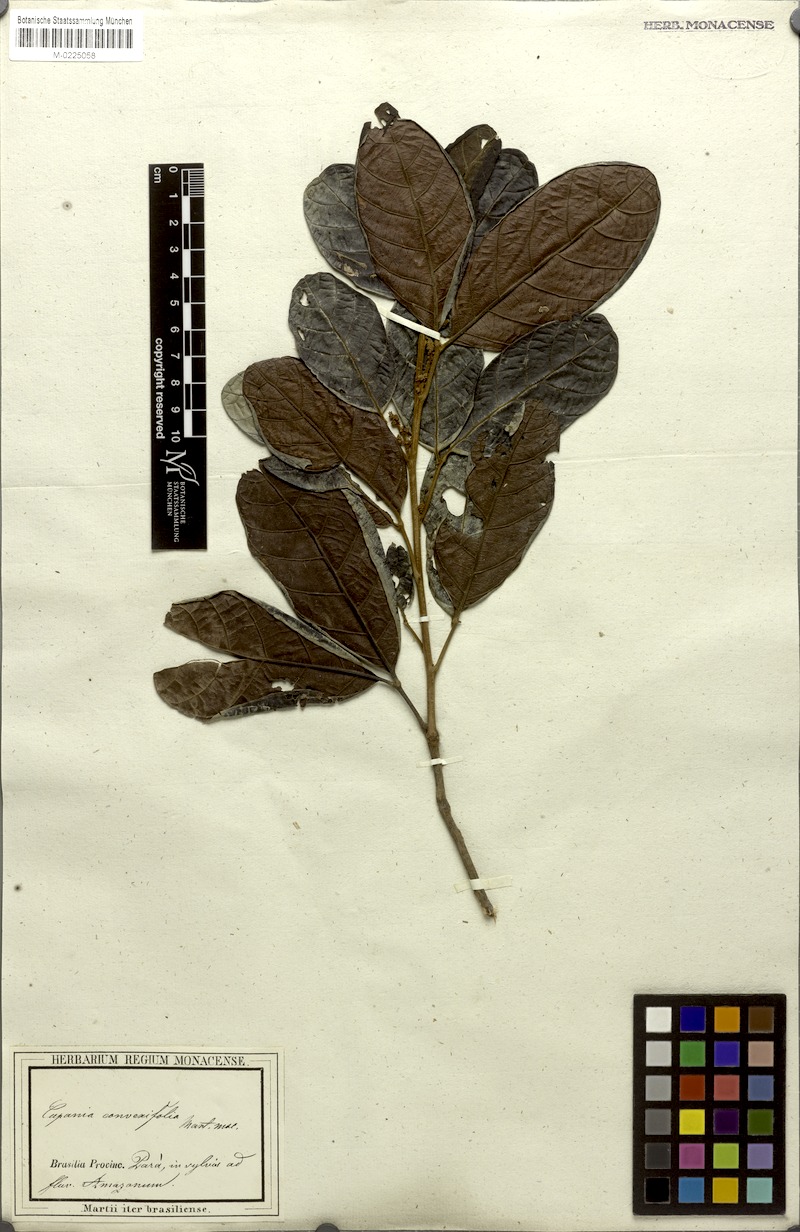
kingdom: Plantae
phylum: Tracheophyta
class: Magnoliopsida
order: Sapindales
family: Sapindaceae
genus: Cupania
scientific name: Cupania diphylla
